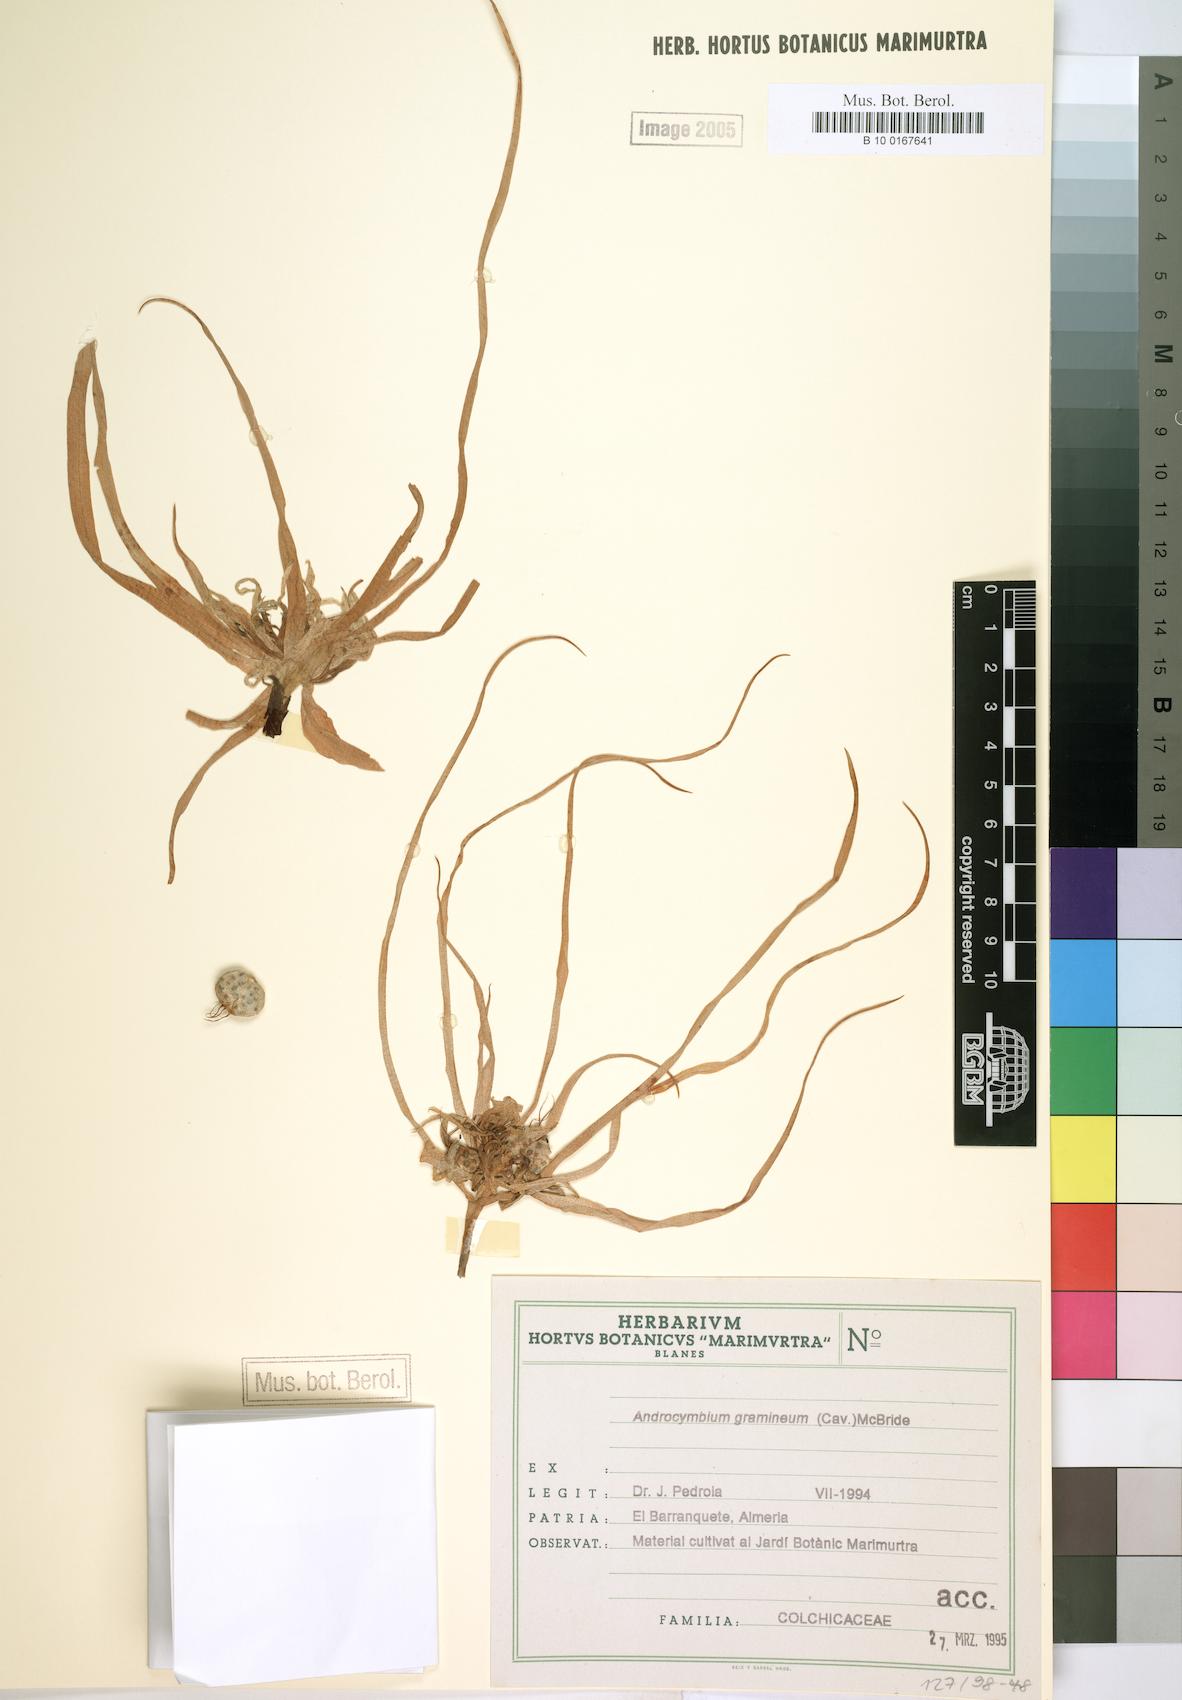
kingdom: Plantae
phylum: Tracheophyta
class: Liliopsida
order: Liliales
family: Colchicaceae
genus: Colchicum
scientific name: Colchicum gramineum
